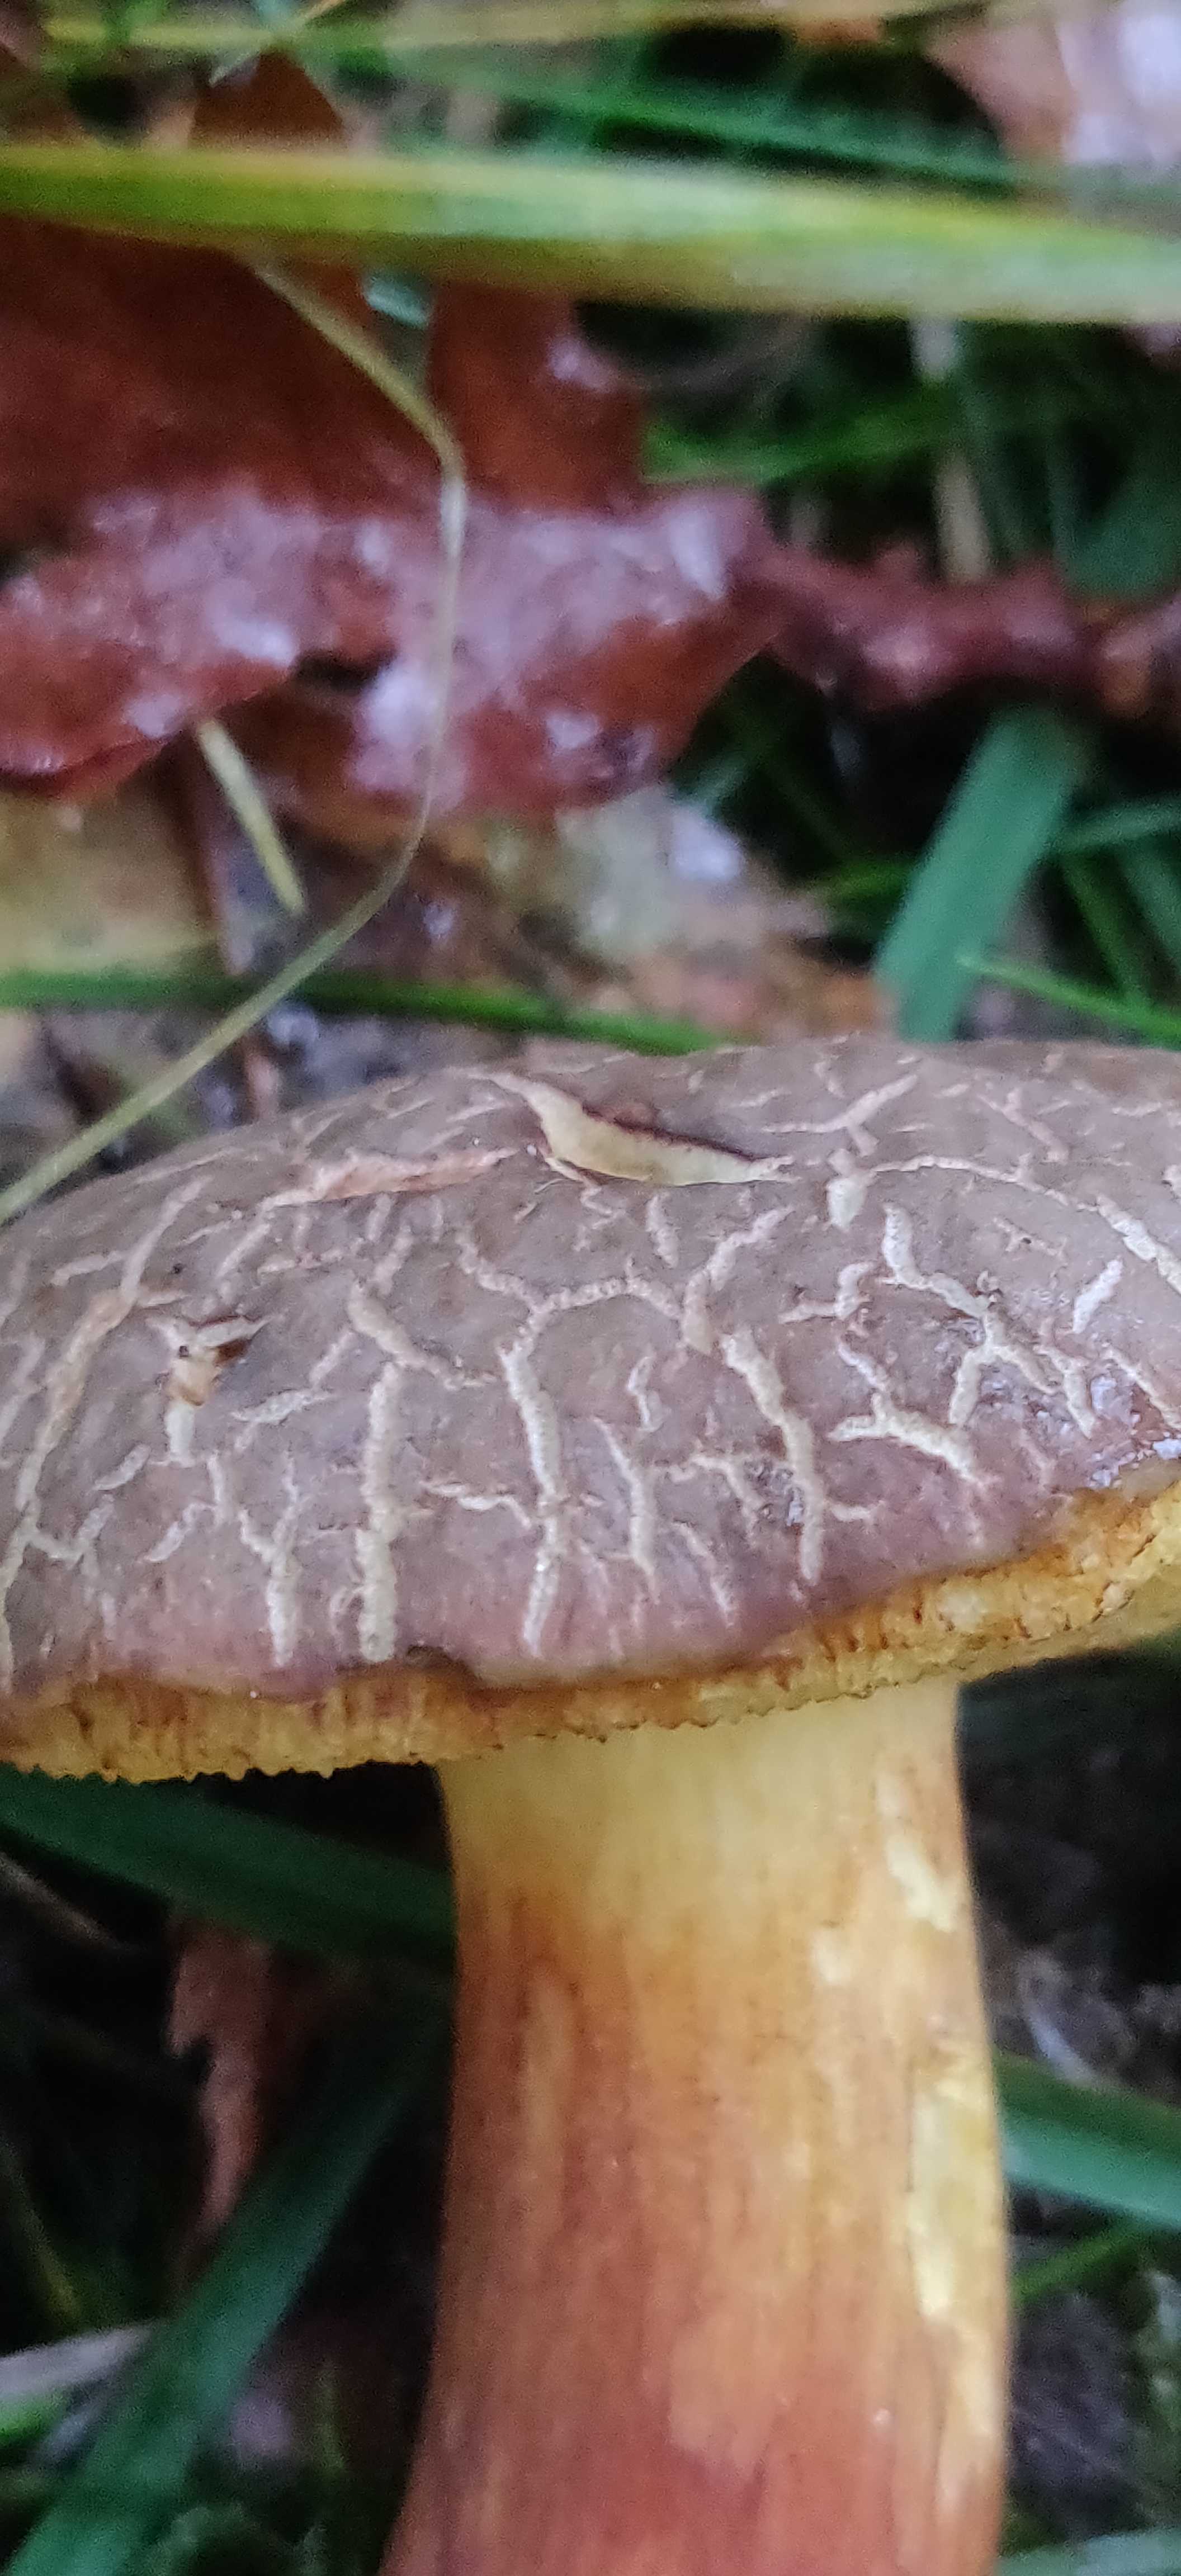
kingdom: Fungi
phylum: Basidiomycota
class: Agaricomycetes
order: Boletales
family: Boletaceae
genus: Xerocomellus
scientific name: Xerocomellus chrysenteron
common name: rødsprukken rørhat
